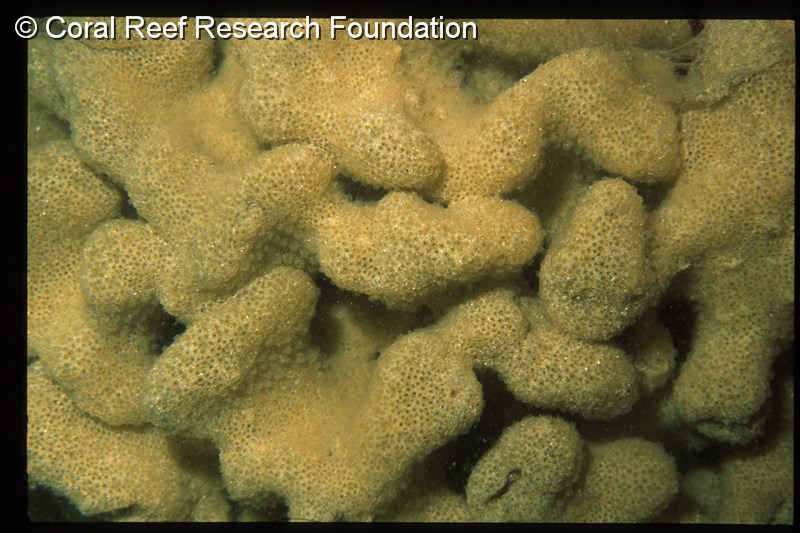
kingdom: Animalia
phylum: Chordata
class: Ascidiacea
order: Aplousobranchia
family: Polyclinidae
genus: Polyclinum
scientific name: Polyclinum isipingense
